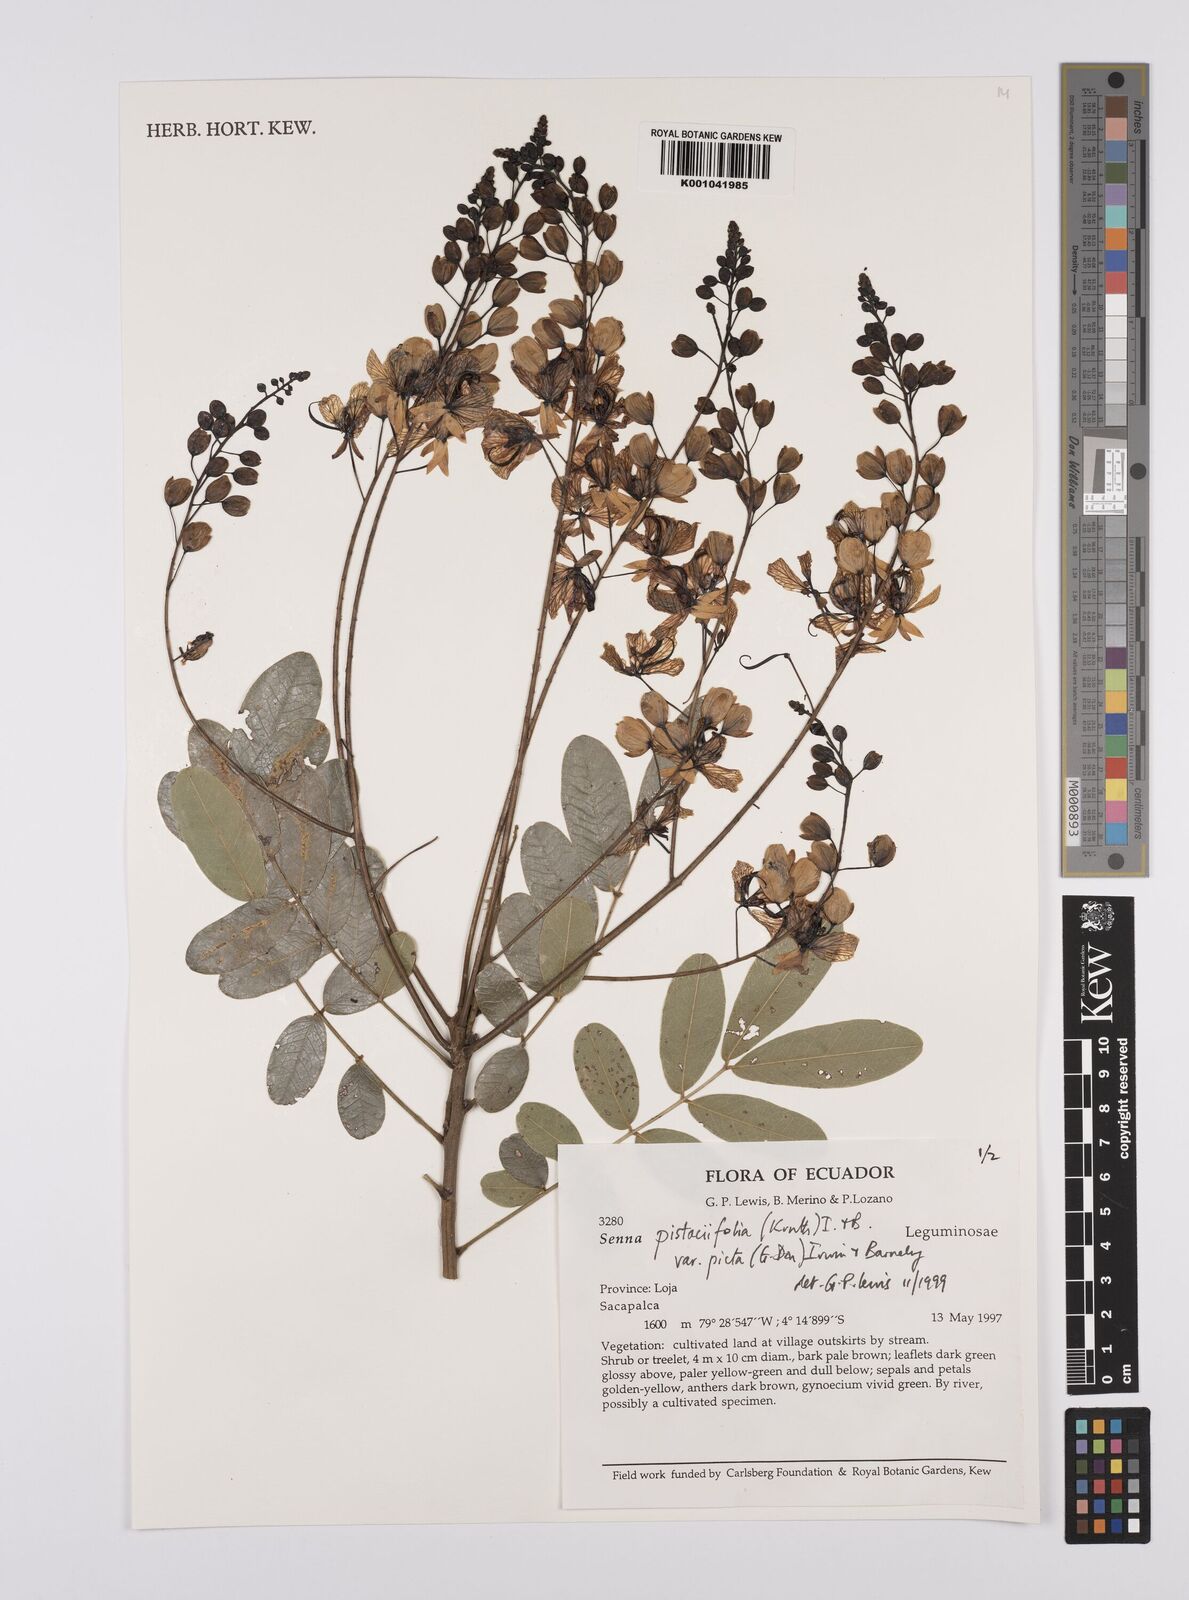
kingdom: Plantae
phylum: Tracheophyta
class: Magnoliopsida
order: Fabales
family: Fabaceae
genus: Senna
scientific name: Senna pistaciifolia
